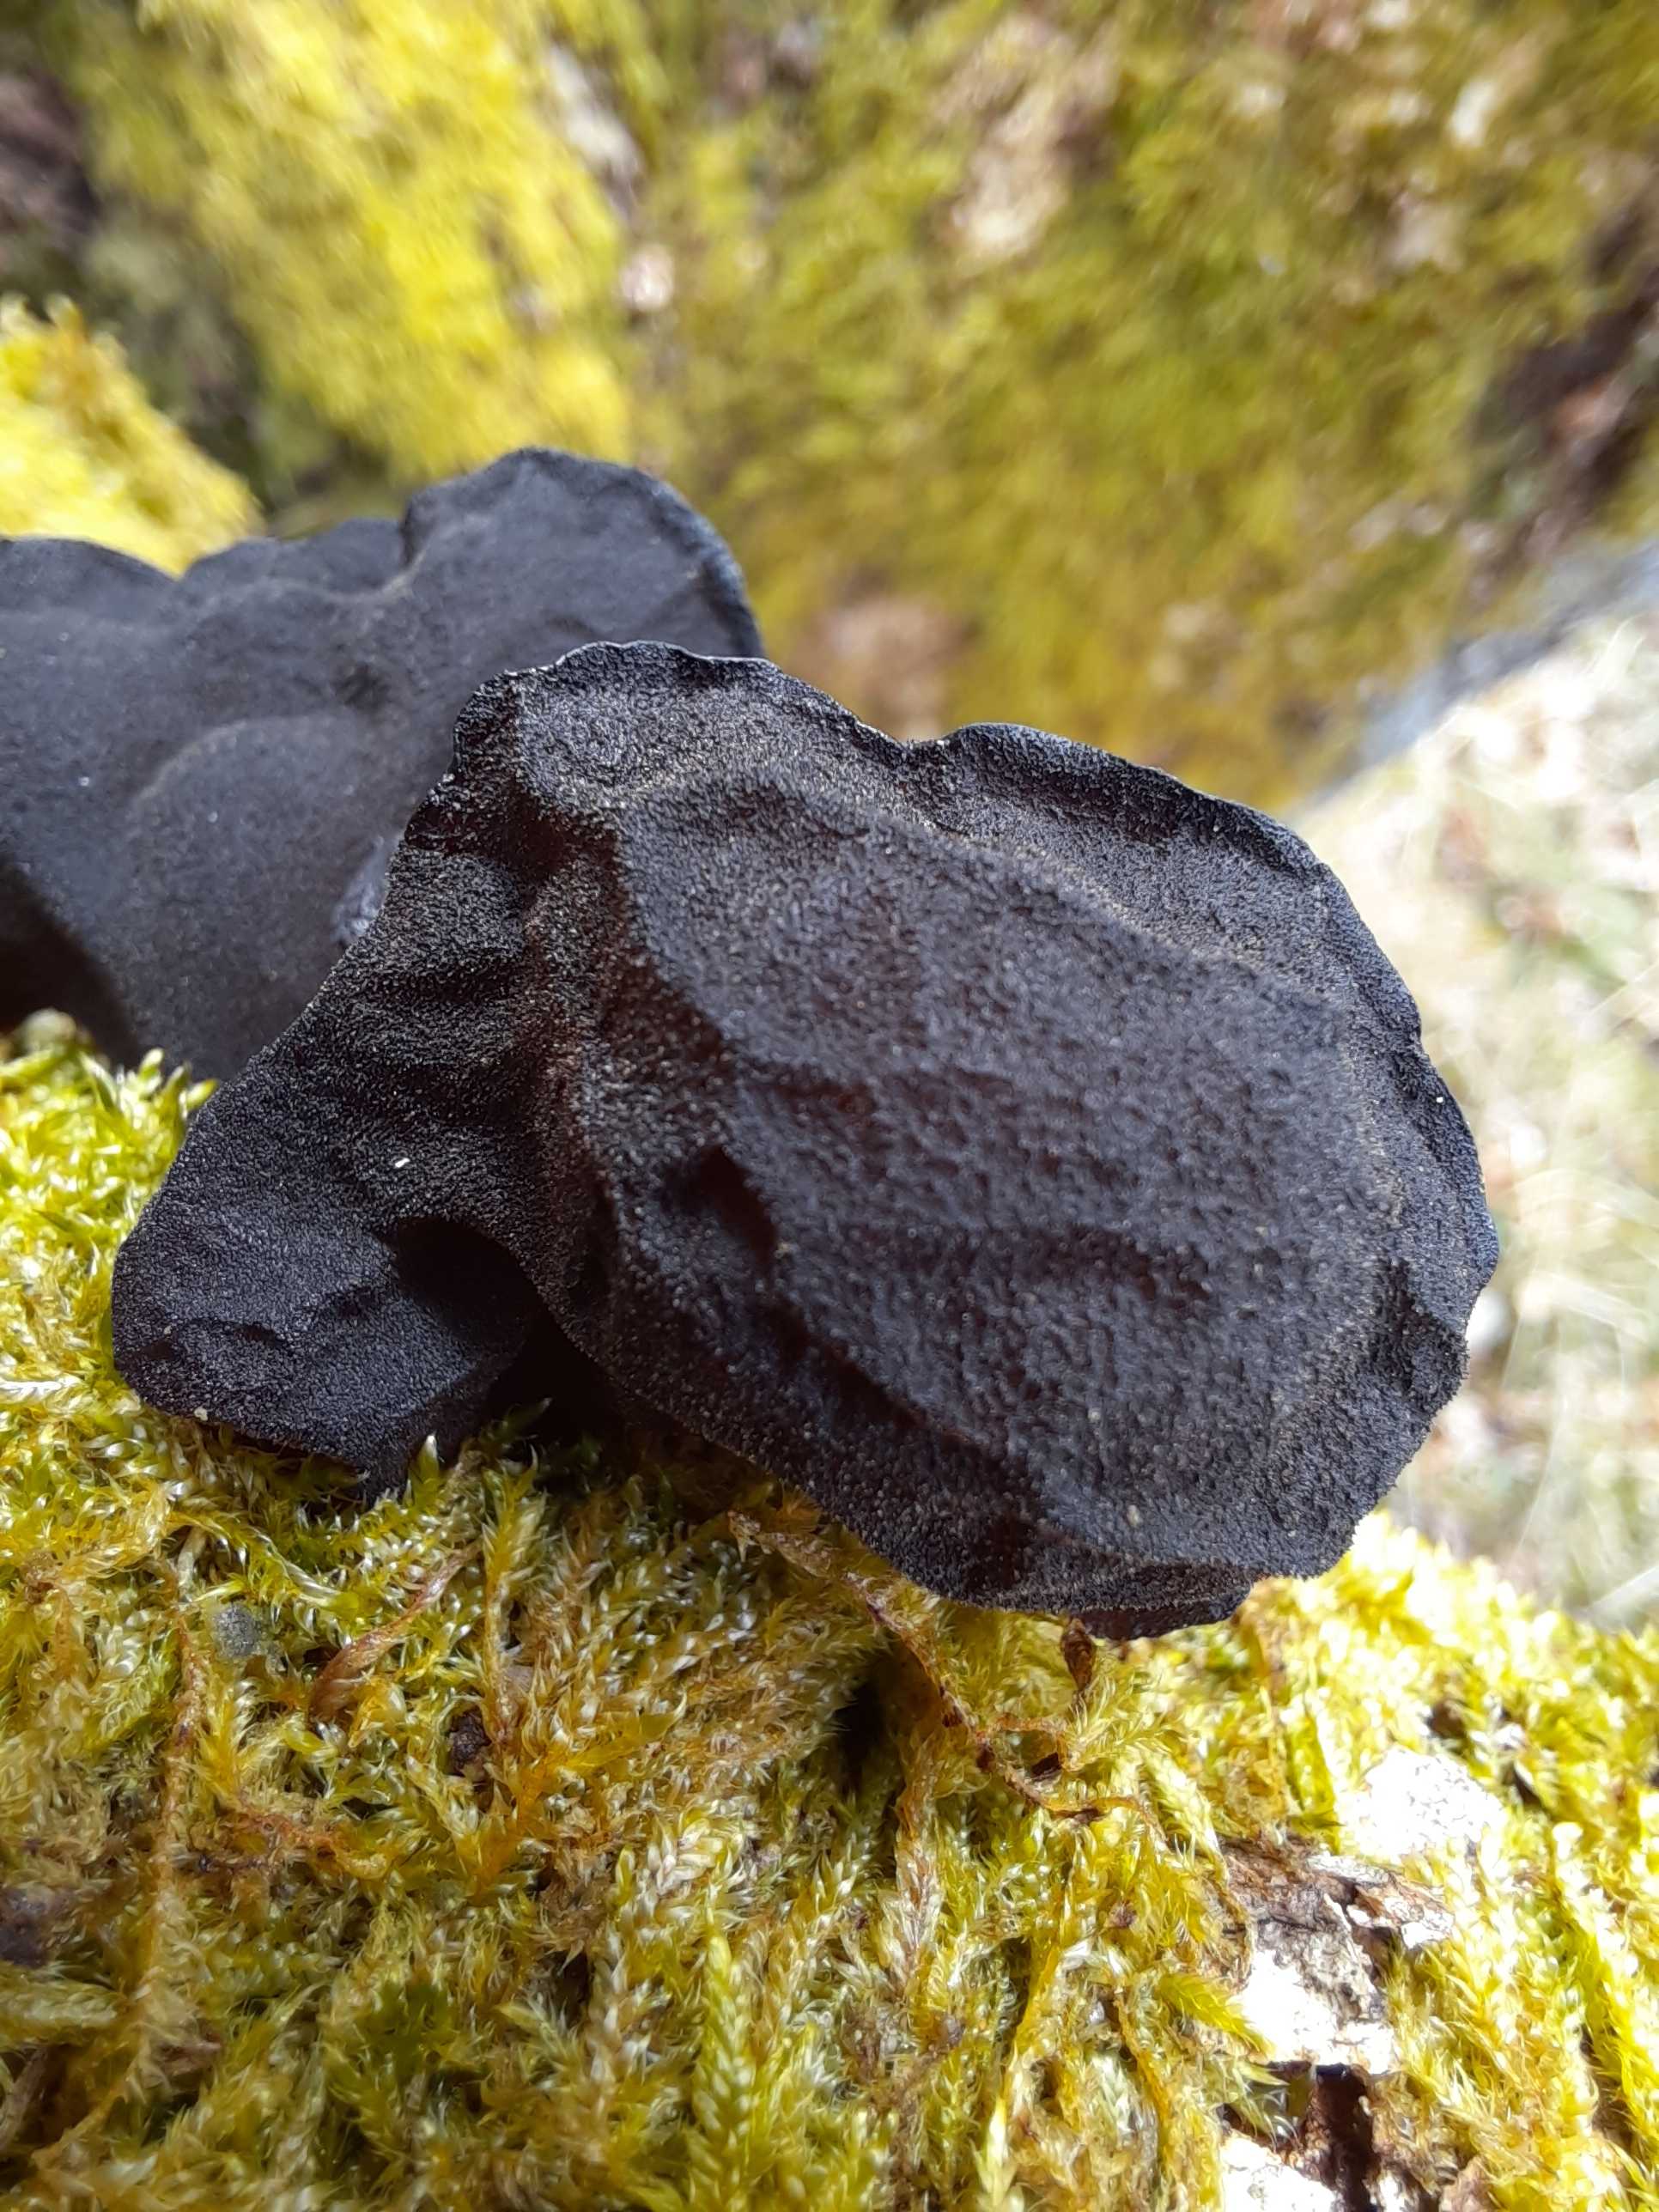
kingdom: Fungi
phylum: Basidiomycota
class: Agaricomycetes
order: Auriculariales
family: Auriculariaceae
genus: Exidia
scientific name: Exidia glandulosa
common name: ege-bævretop
